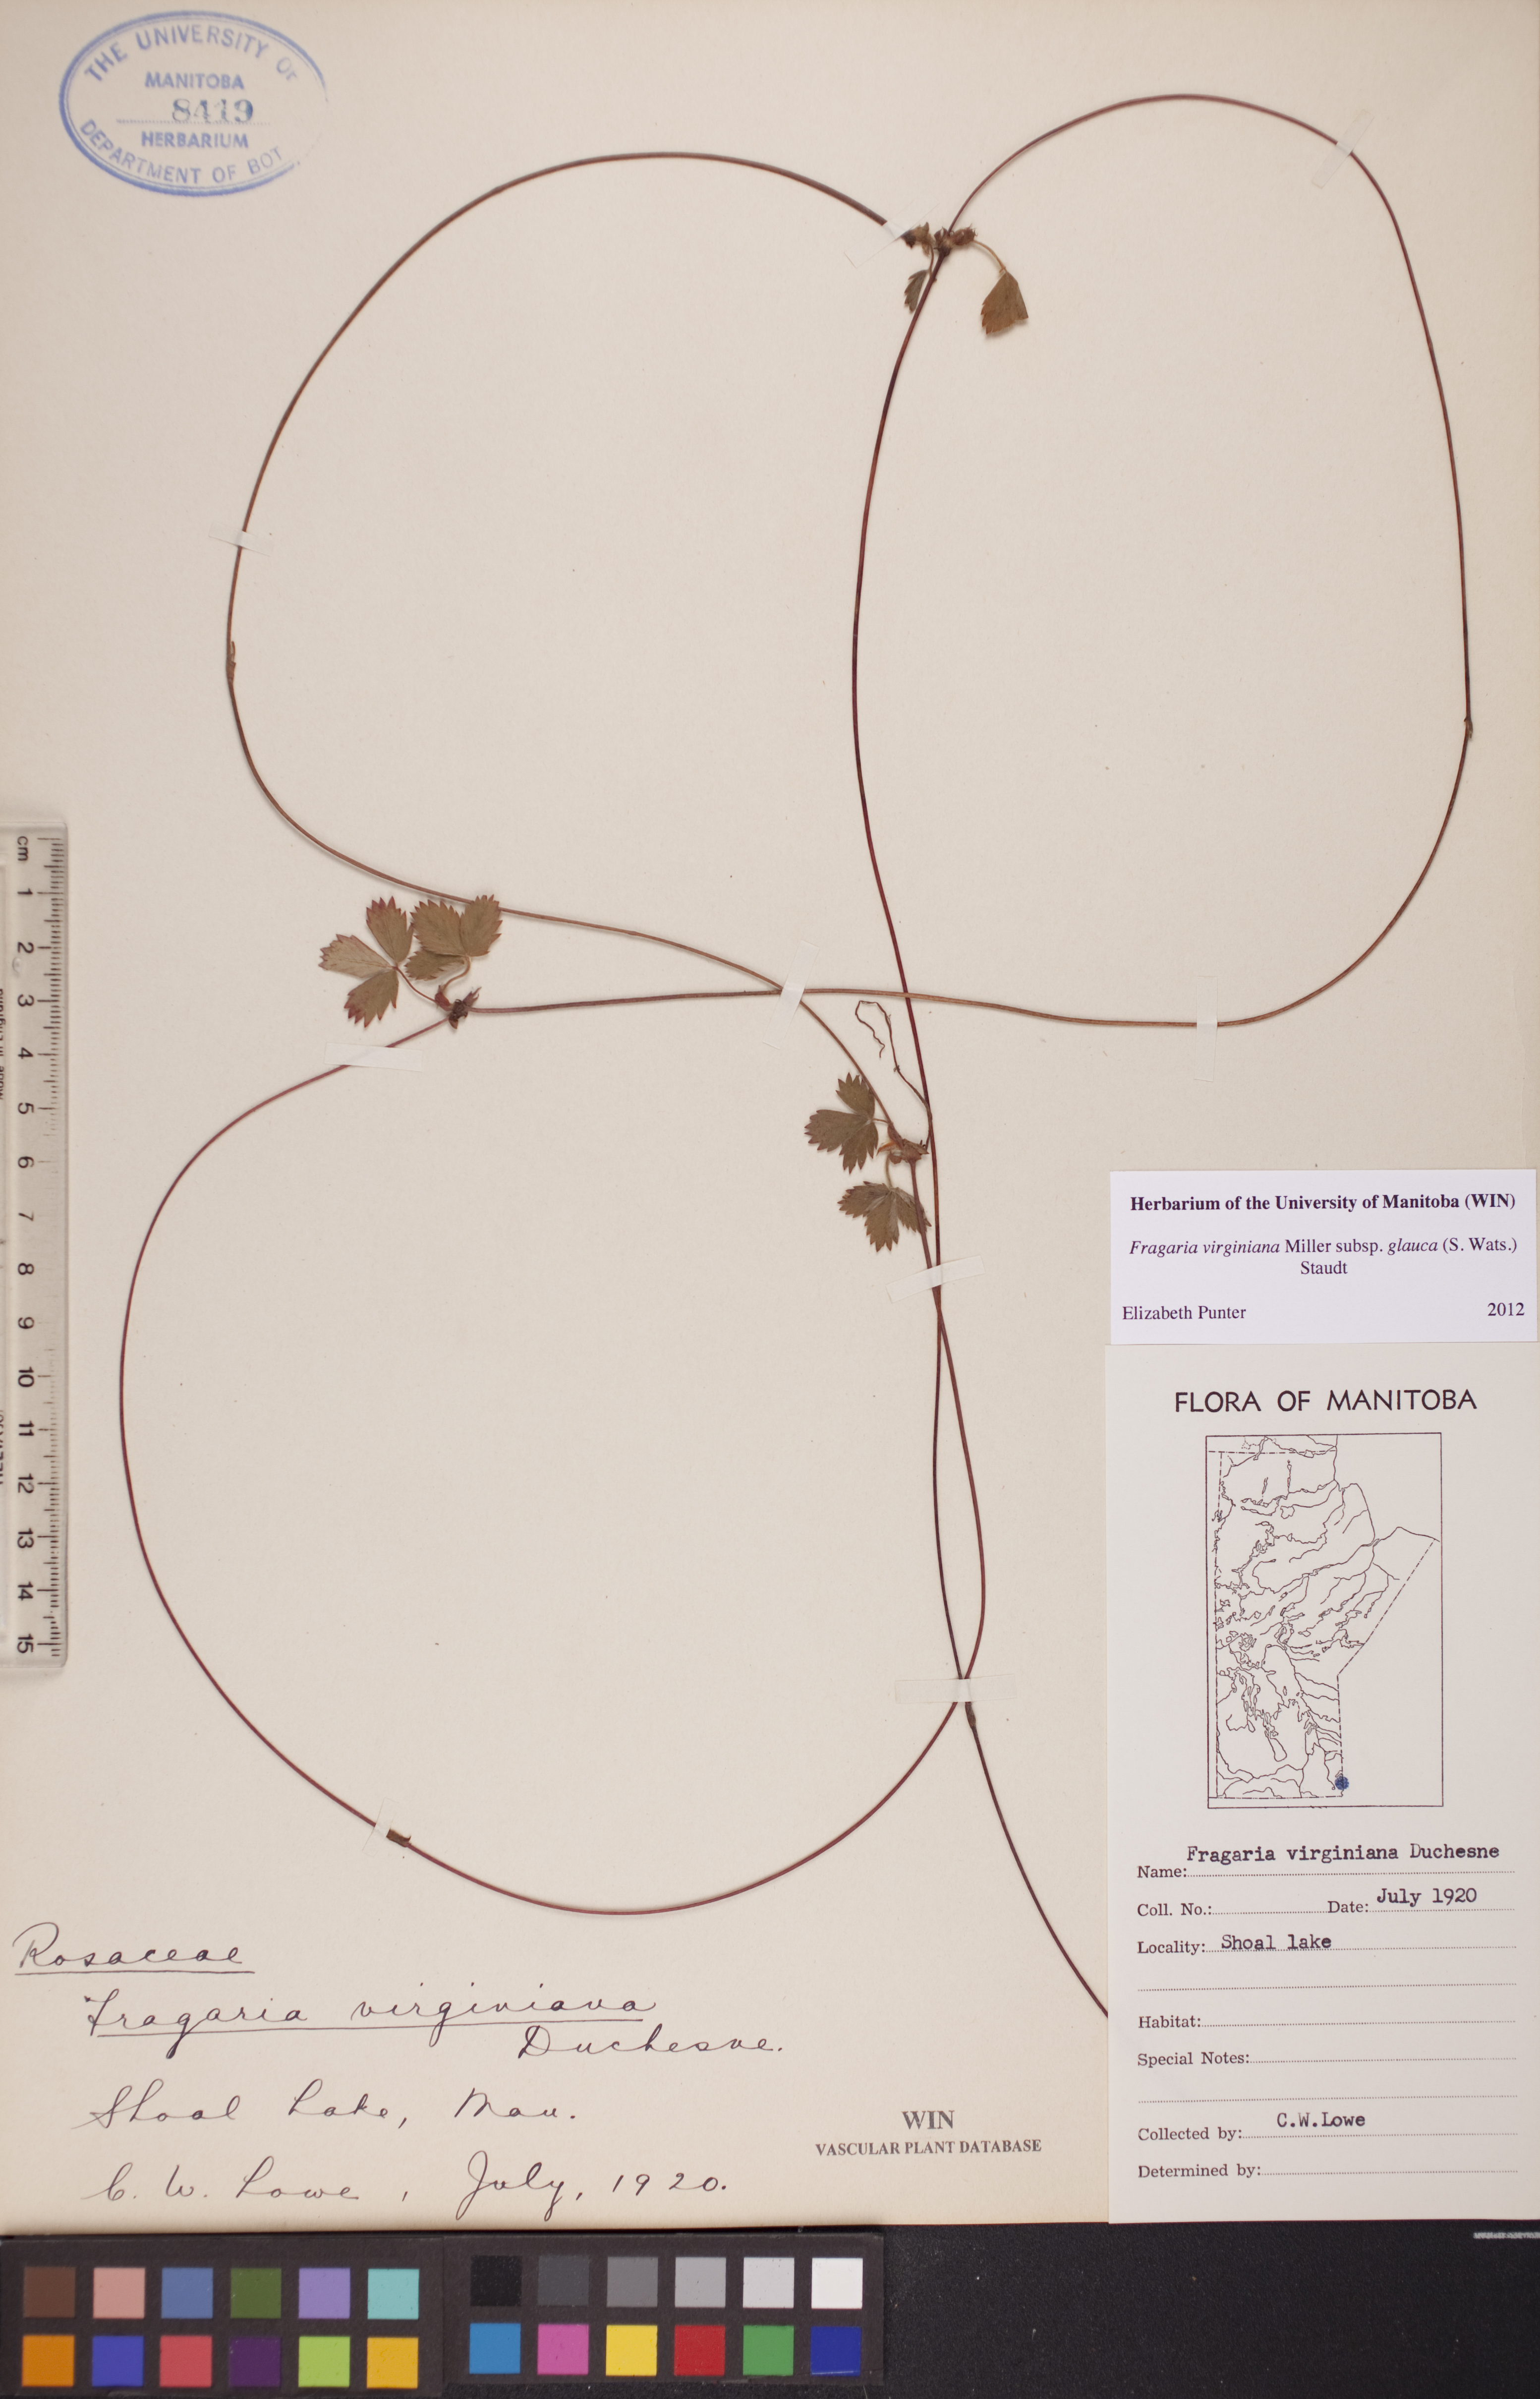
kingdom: Plantae
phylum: Tracheophyta
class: Magnoliopsida
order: Rosales
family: Rosaceae
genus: Fragaria
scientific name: Fragaria virginiana
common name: Thickleaved wild strawberry
